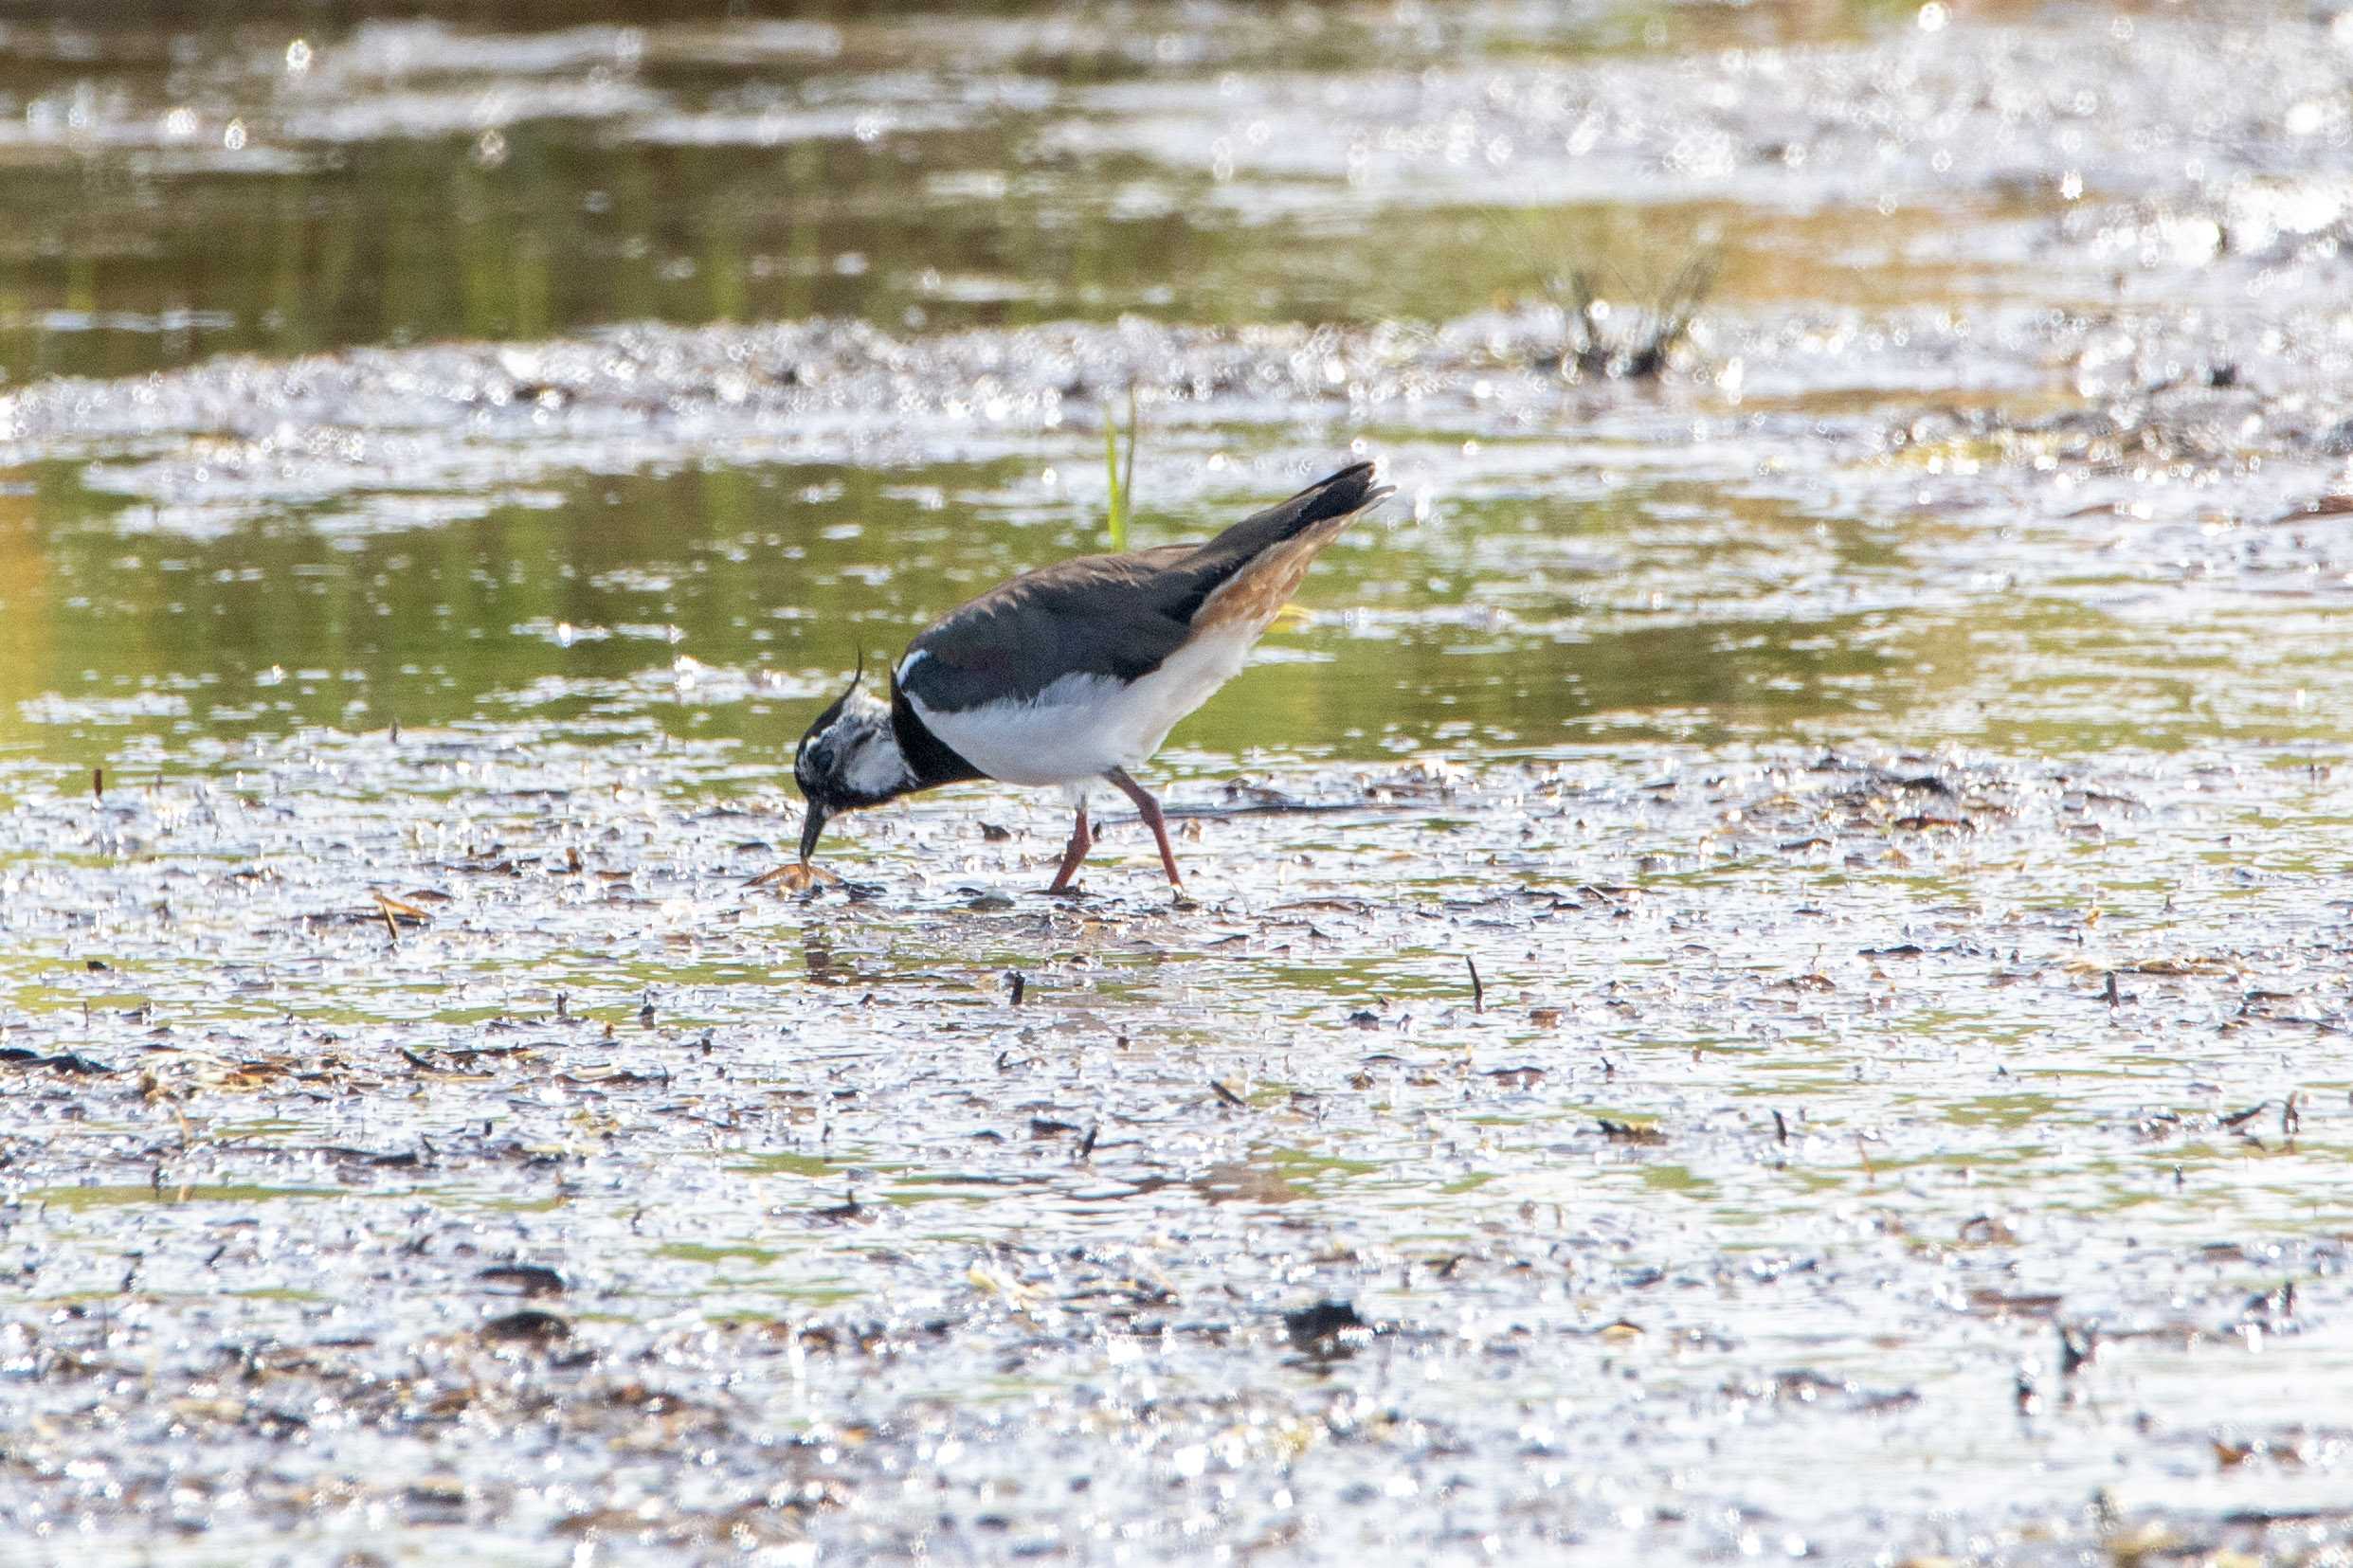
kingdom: Animalia
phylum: Chordata
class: Aves
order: Charadriiformes
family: Charadriidae
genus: Vanellus
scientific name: Vanellus vanellus
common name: Vibe
